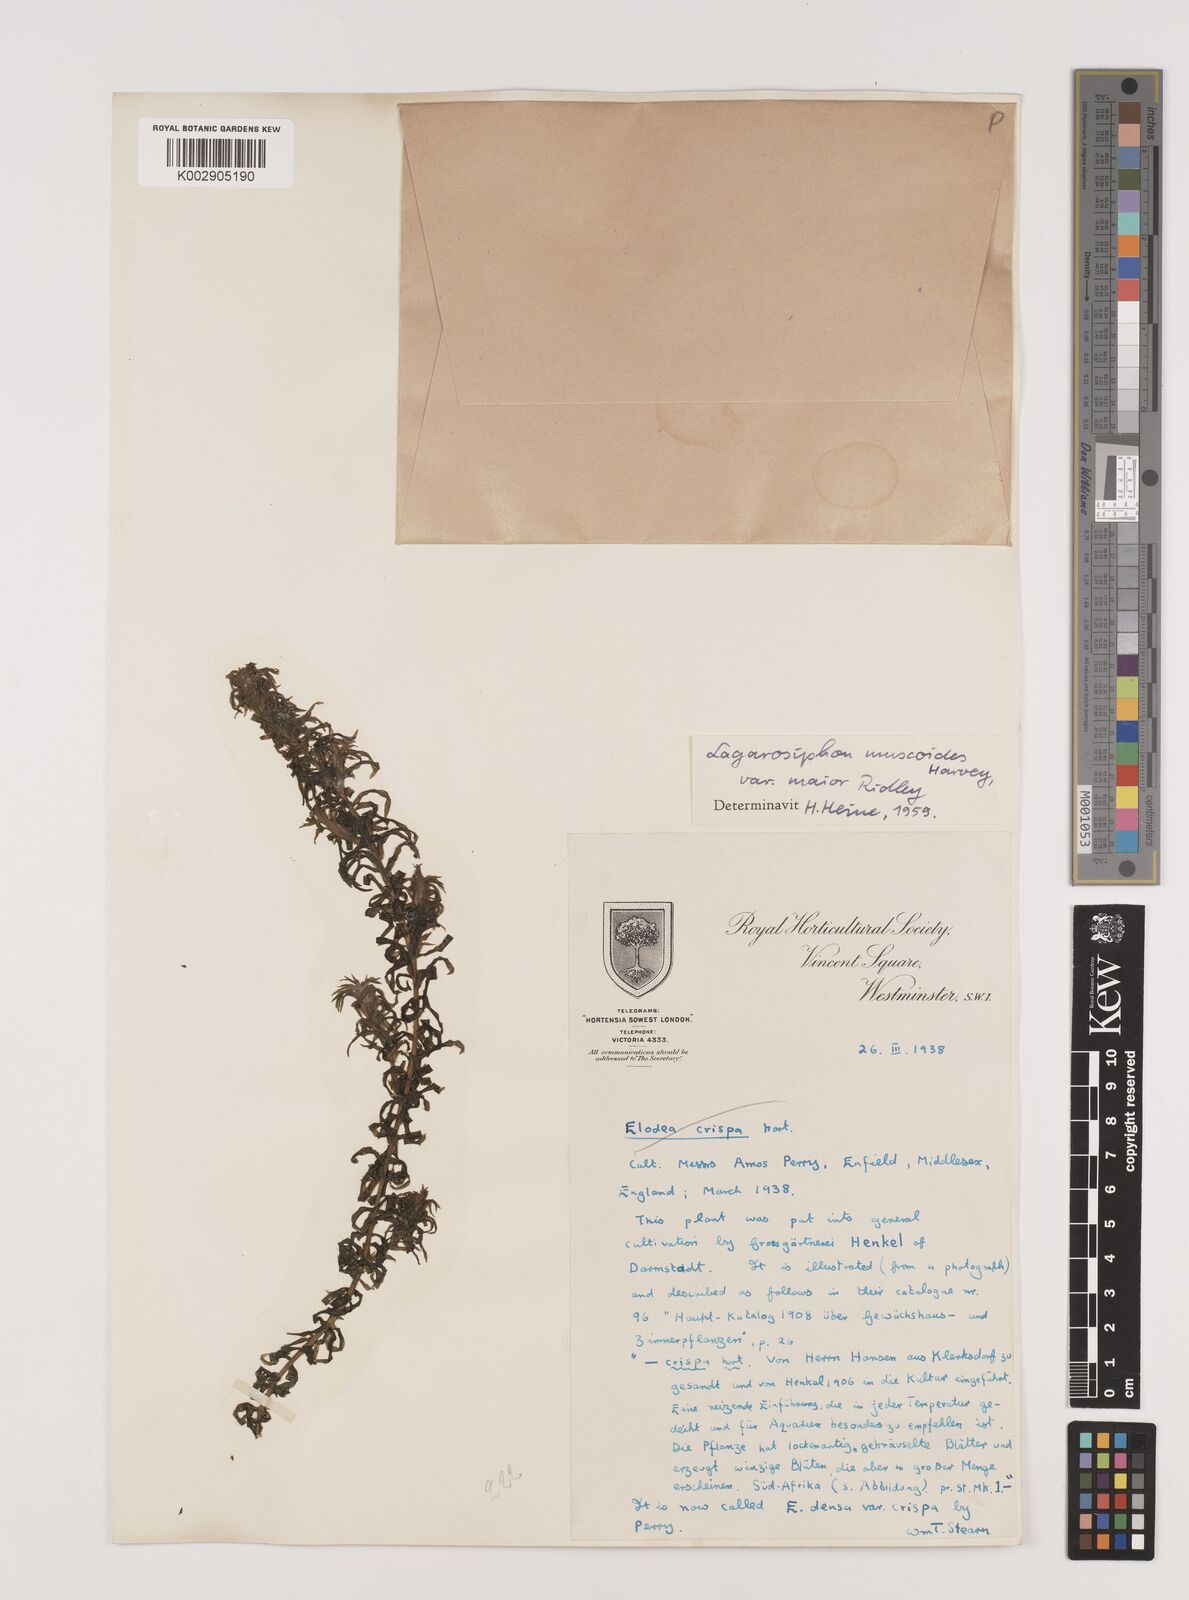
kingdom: Plantae
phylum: Tracheophyta
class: Liliopsida
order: Alismatales
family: Hydrocharitaceae
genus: Lagarosiphon
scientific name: Lagarosiphon muscoides
